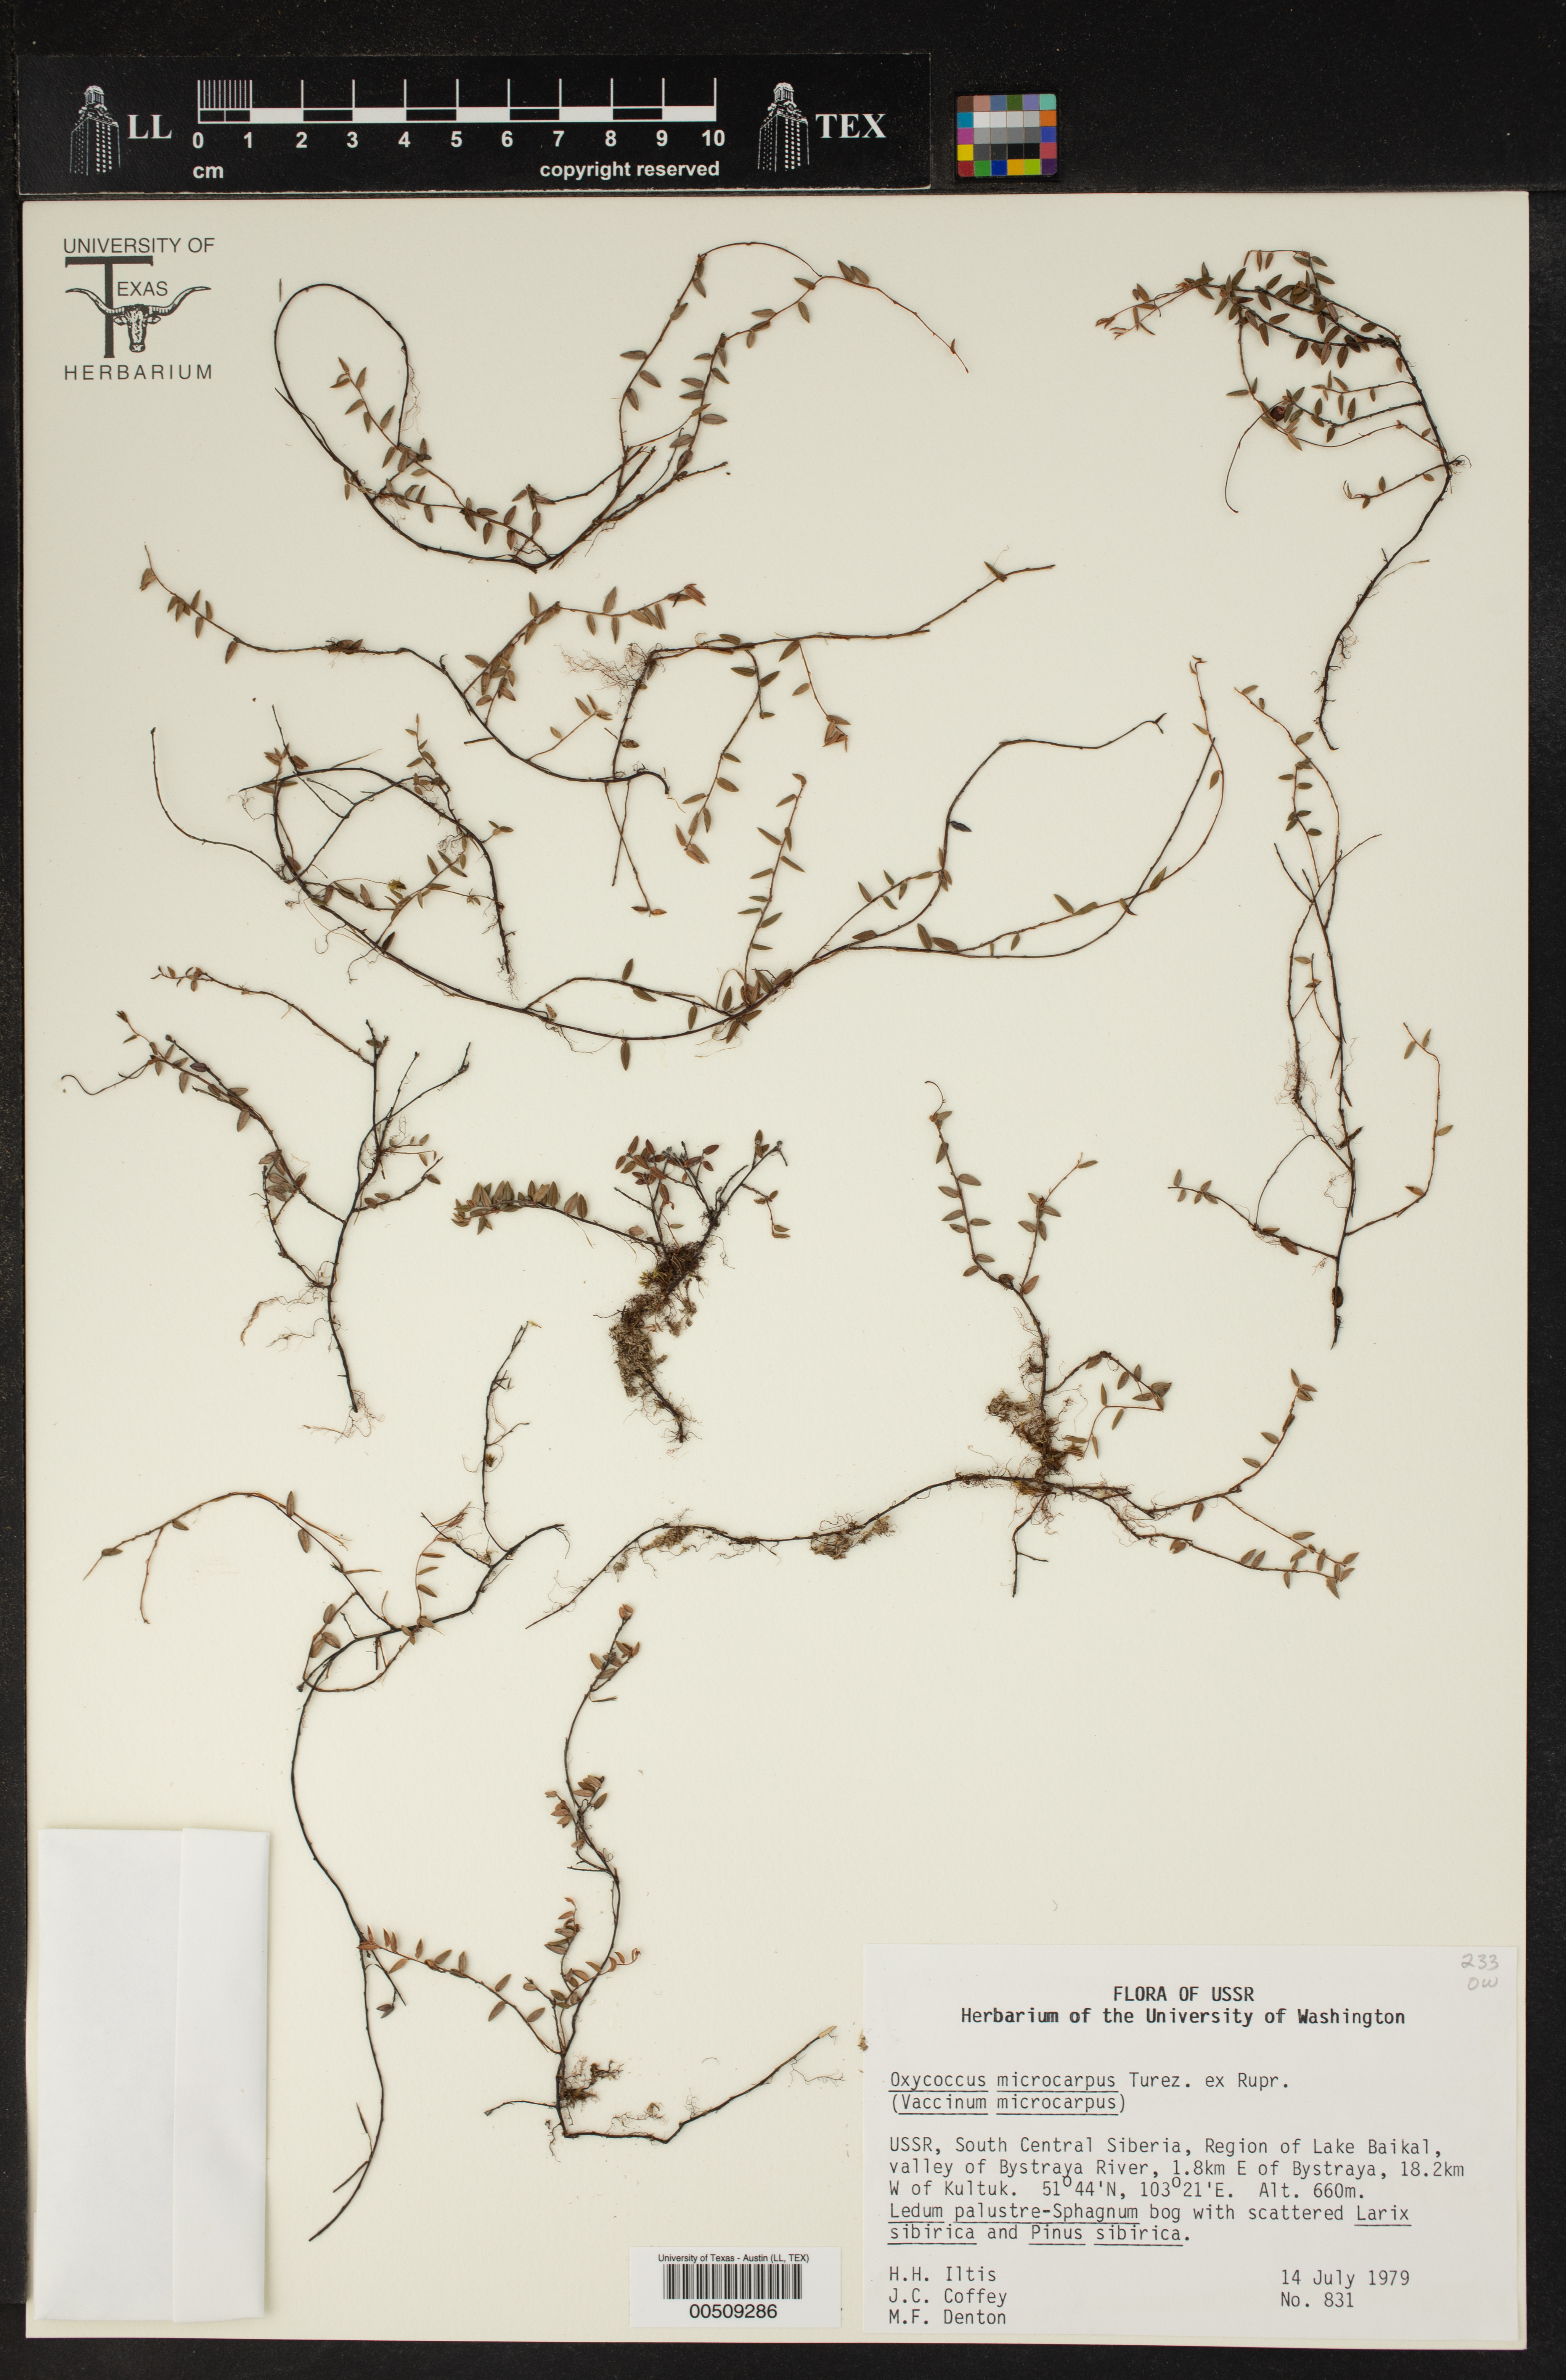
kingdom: Plantae
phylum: Tracheophyta
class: Magnoliopsida
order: Ericales
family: Ericaceae
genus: Vaccinium
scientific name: Vaccinium microcarpum
